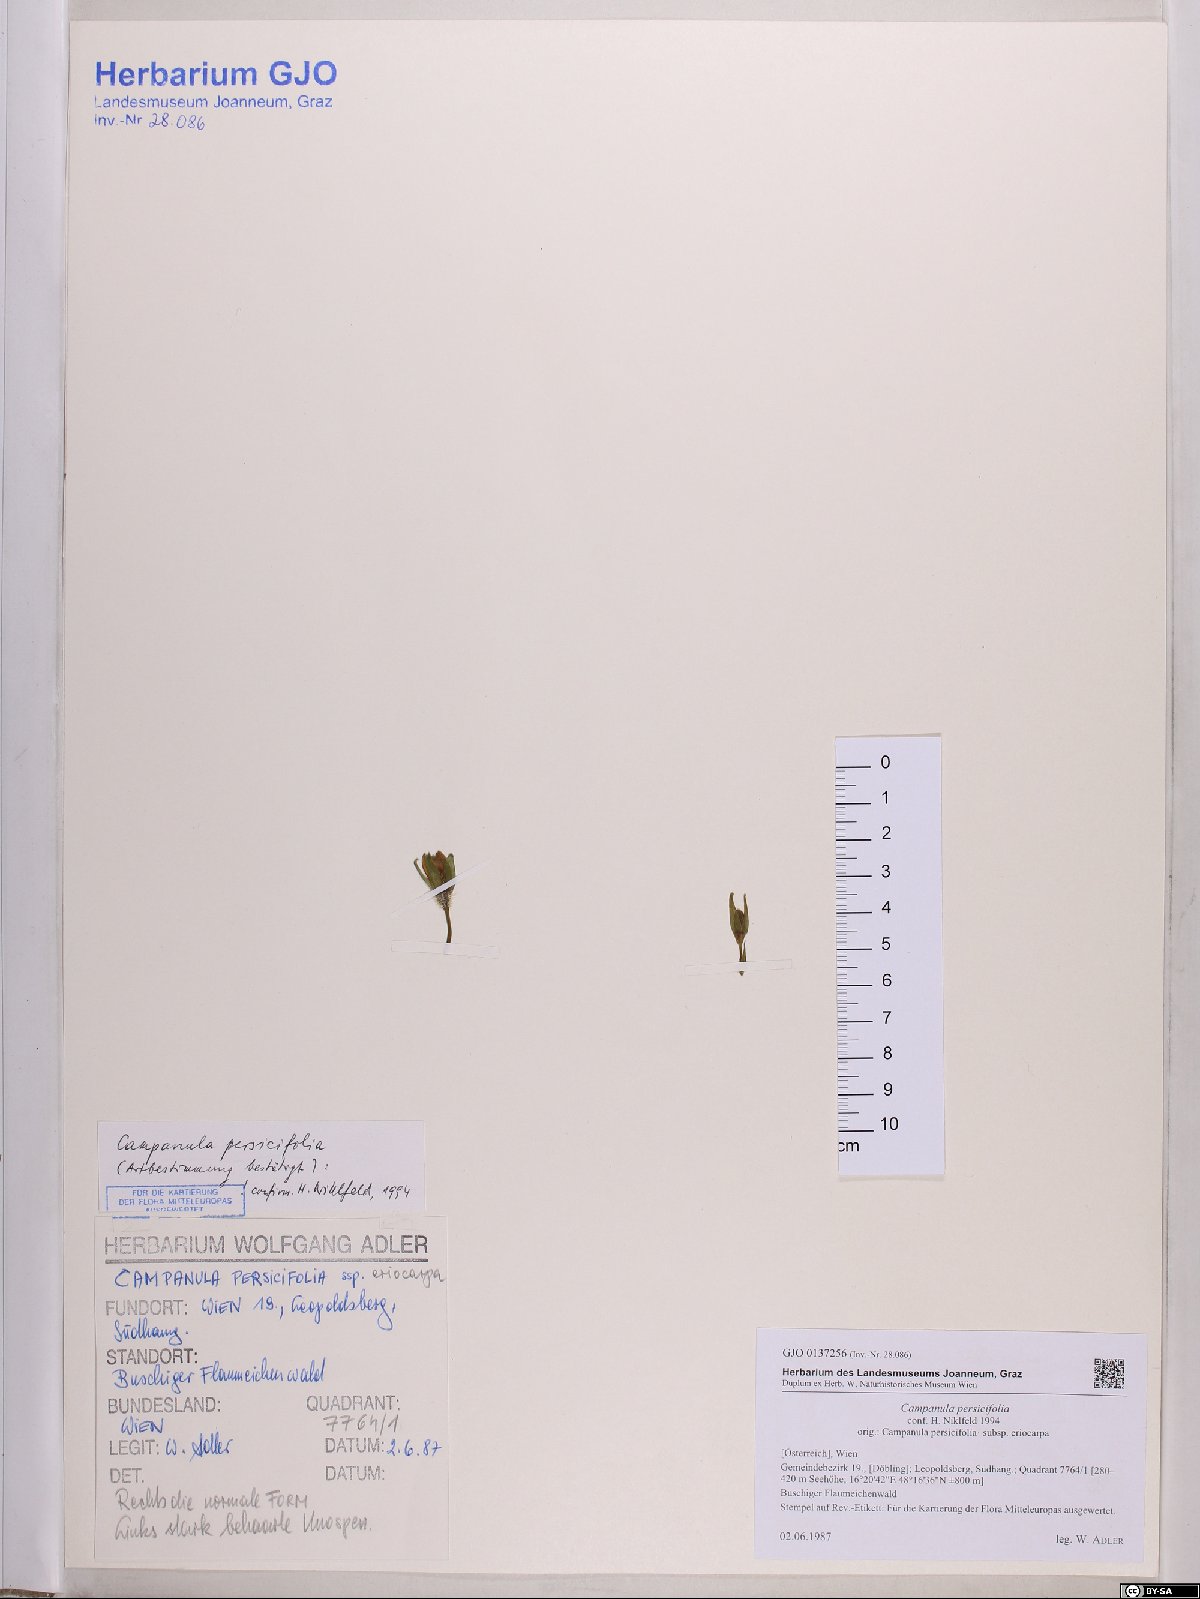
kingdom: Plantae
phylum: Tracheophyta
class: Magnoliopsida
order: Asterales
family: Campanulaceae
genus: Campanula
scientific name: Campanula persicifolia
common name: Peach-leaved bellflower
